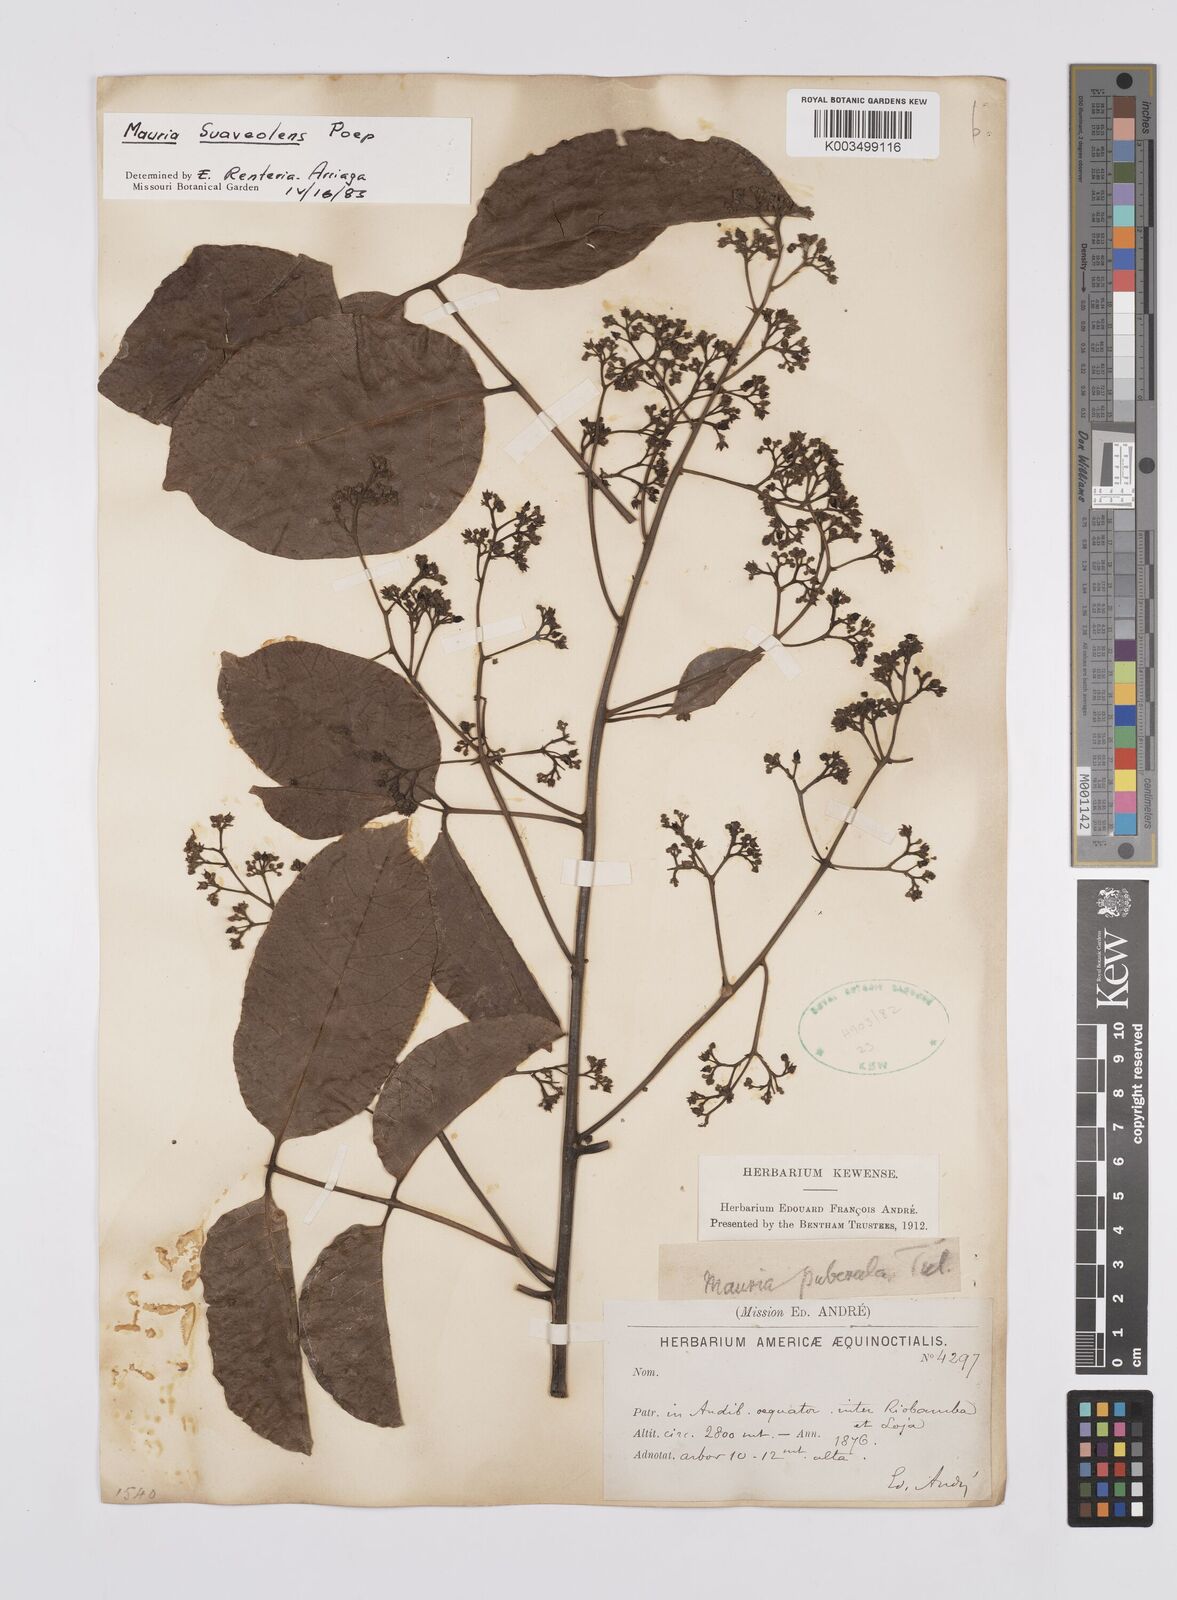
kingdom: Plantae
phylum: Tracheophyta
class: Magnoliopsida
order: Sapindales
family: Anacardiaceae
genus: Mauria
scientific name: Mauria heterophylla
